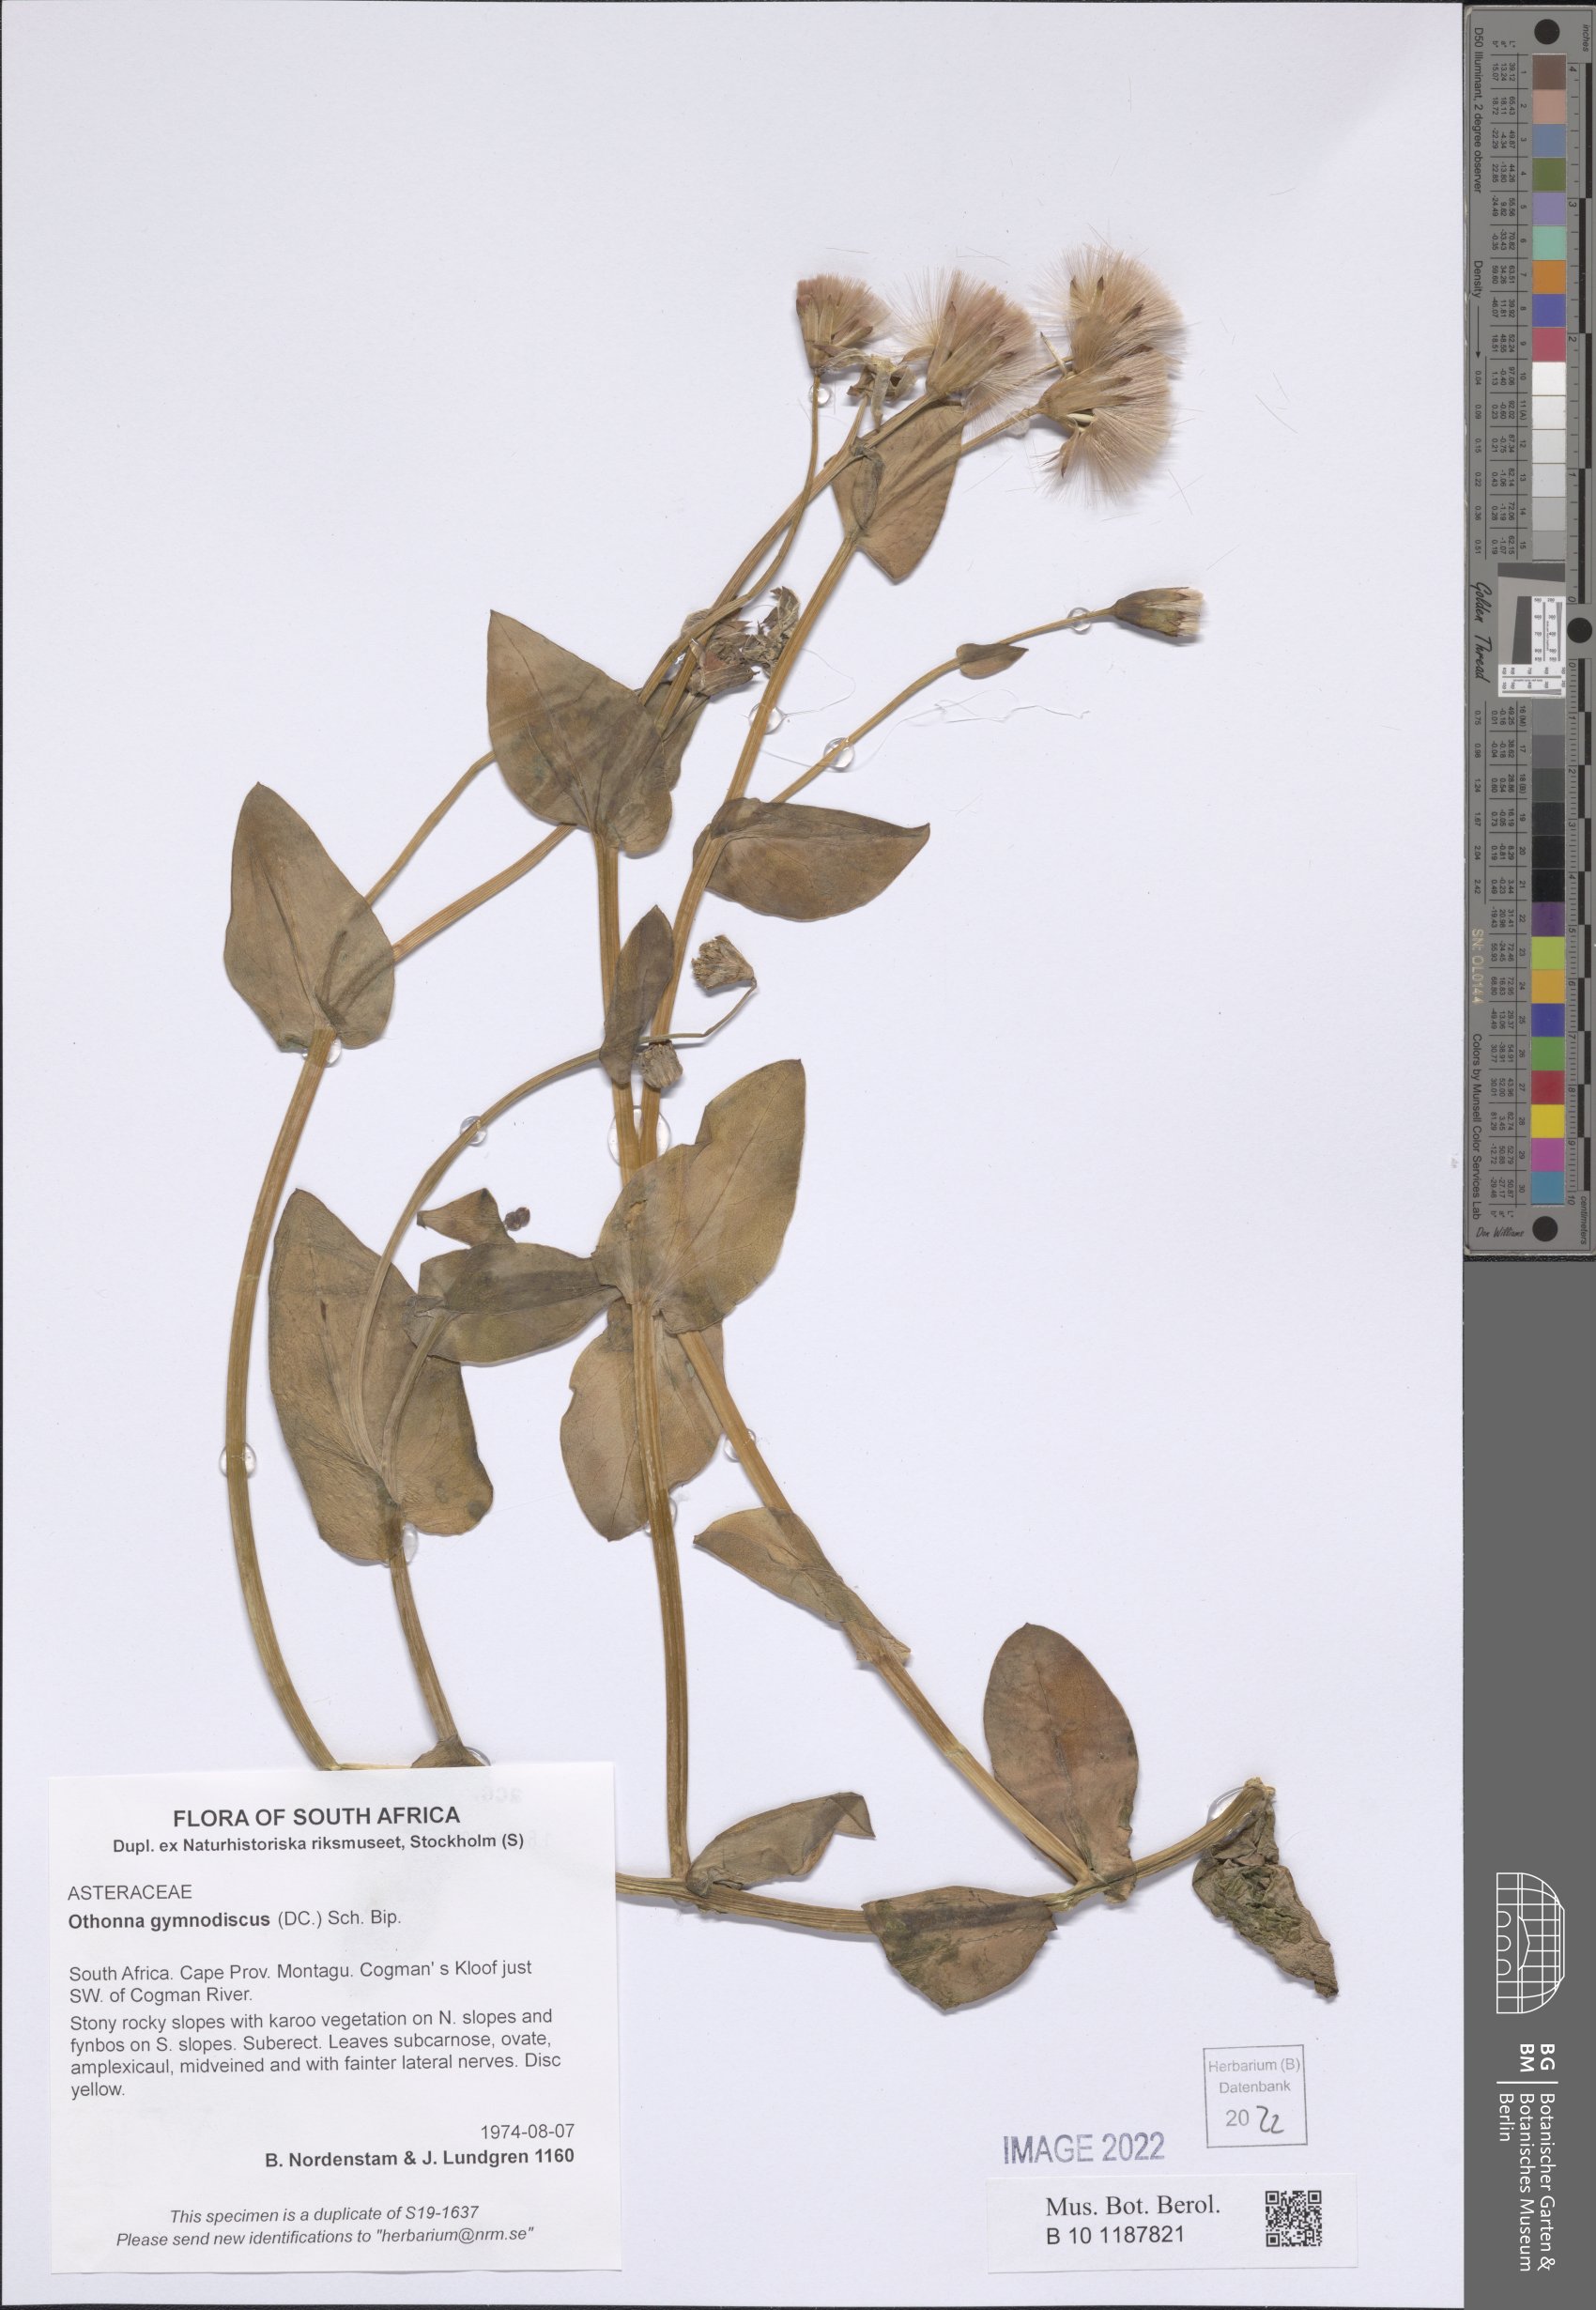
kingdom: Plantae
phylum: Tracheophyta
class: Magnoliopsida
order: Asterales
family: Asteraceae
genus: Othonna
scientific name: Othonna gymnodiscus
